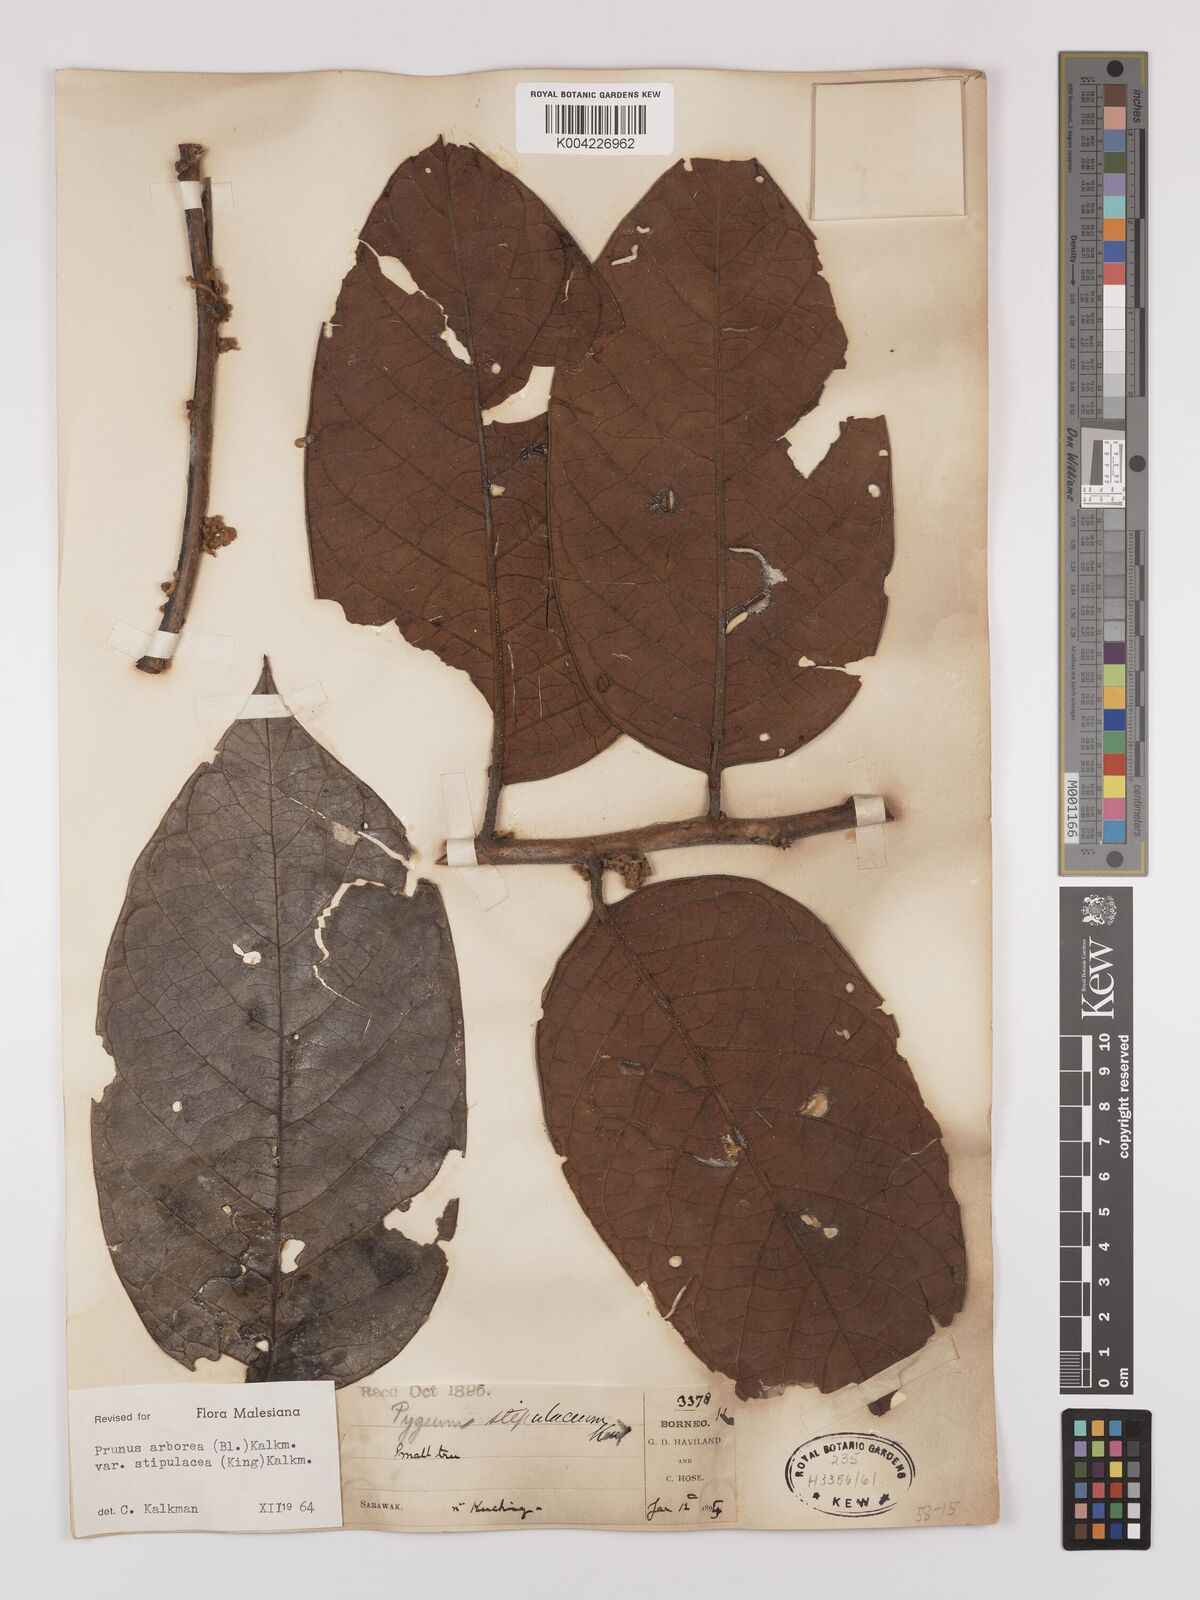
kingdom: Plantae
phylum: Tracheophyta
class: Magnoliopsida
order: Rosales
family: Rosaceae
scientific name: Rosaceae
